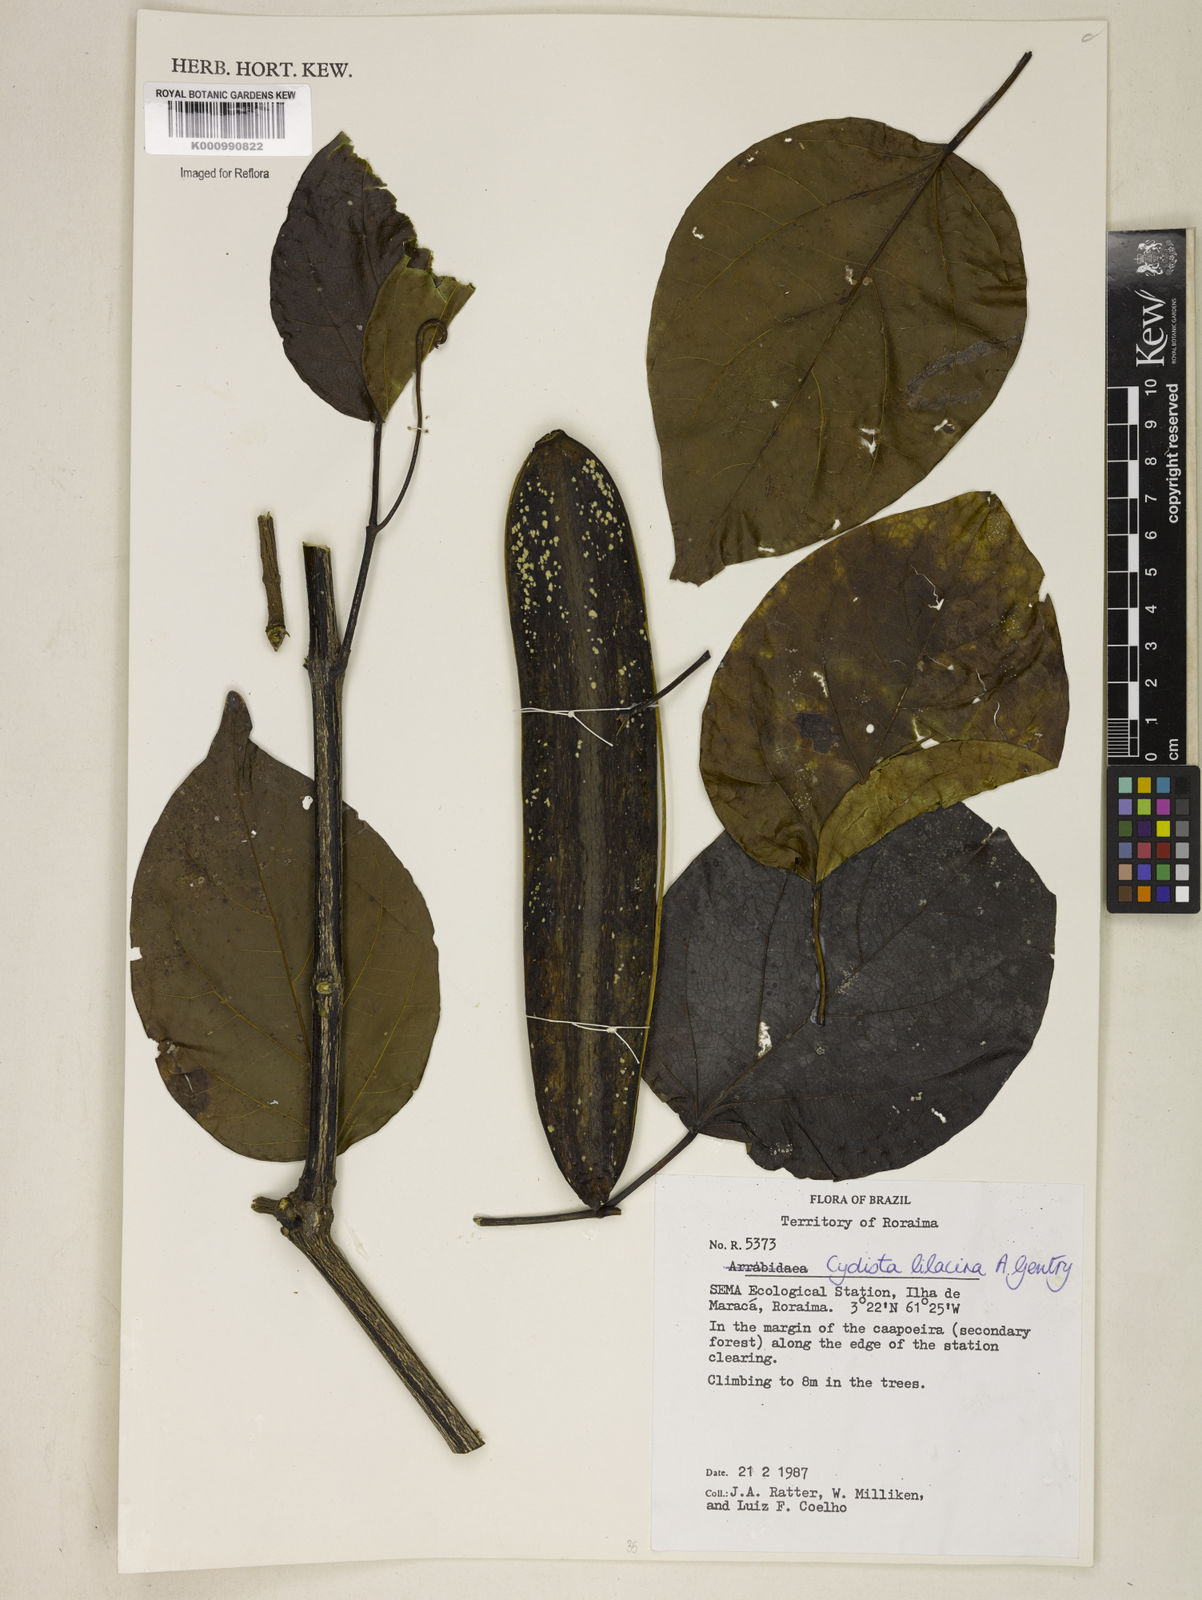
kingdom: Plantae
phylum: Tracheophyta
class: Magnoliopsida
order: Lamiales
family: Bignoniaceae
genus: Bignonia
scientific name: Bignonia lilacina
